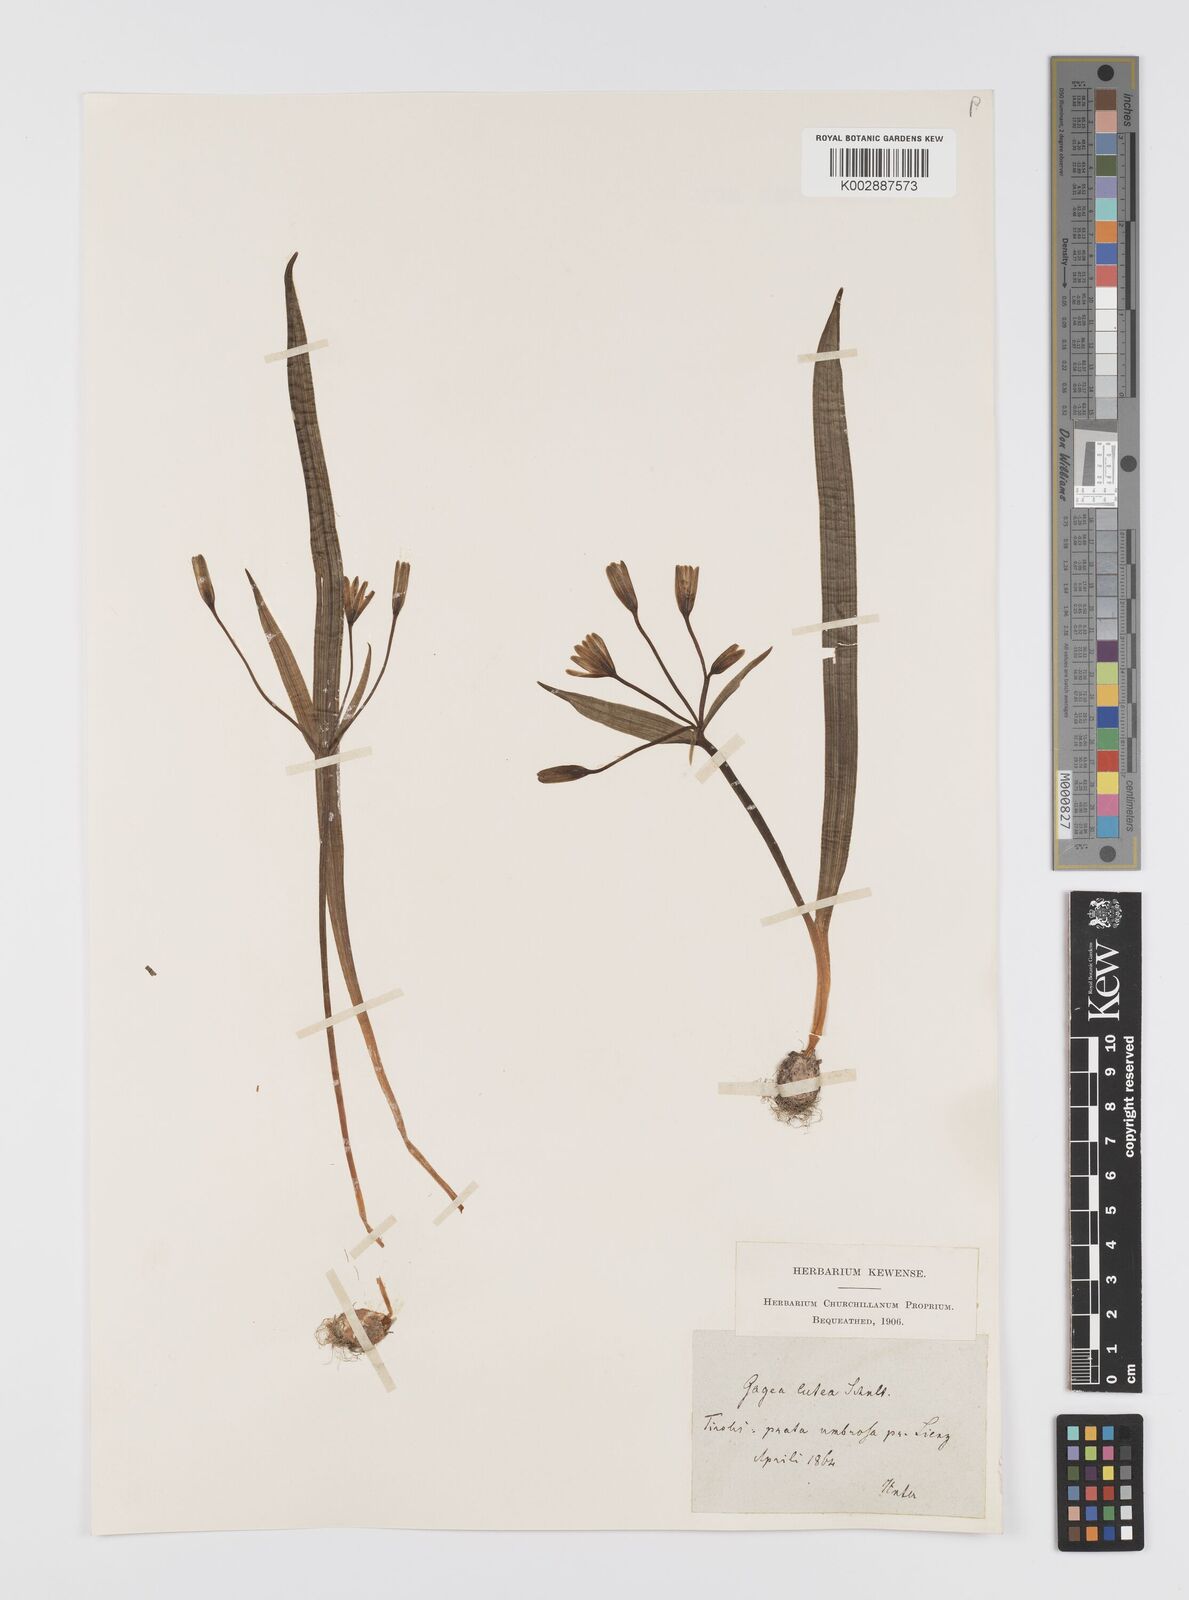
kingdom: Plantae
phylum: Tracheophyta
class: Liliopsida
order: Liliales
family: Liliaceae
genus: Gagea
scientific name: Gagea lutea
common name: Yellow star-of-bethlehem
